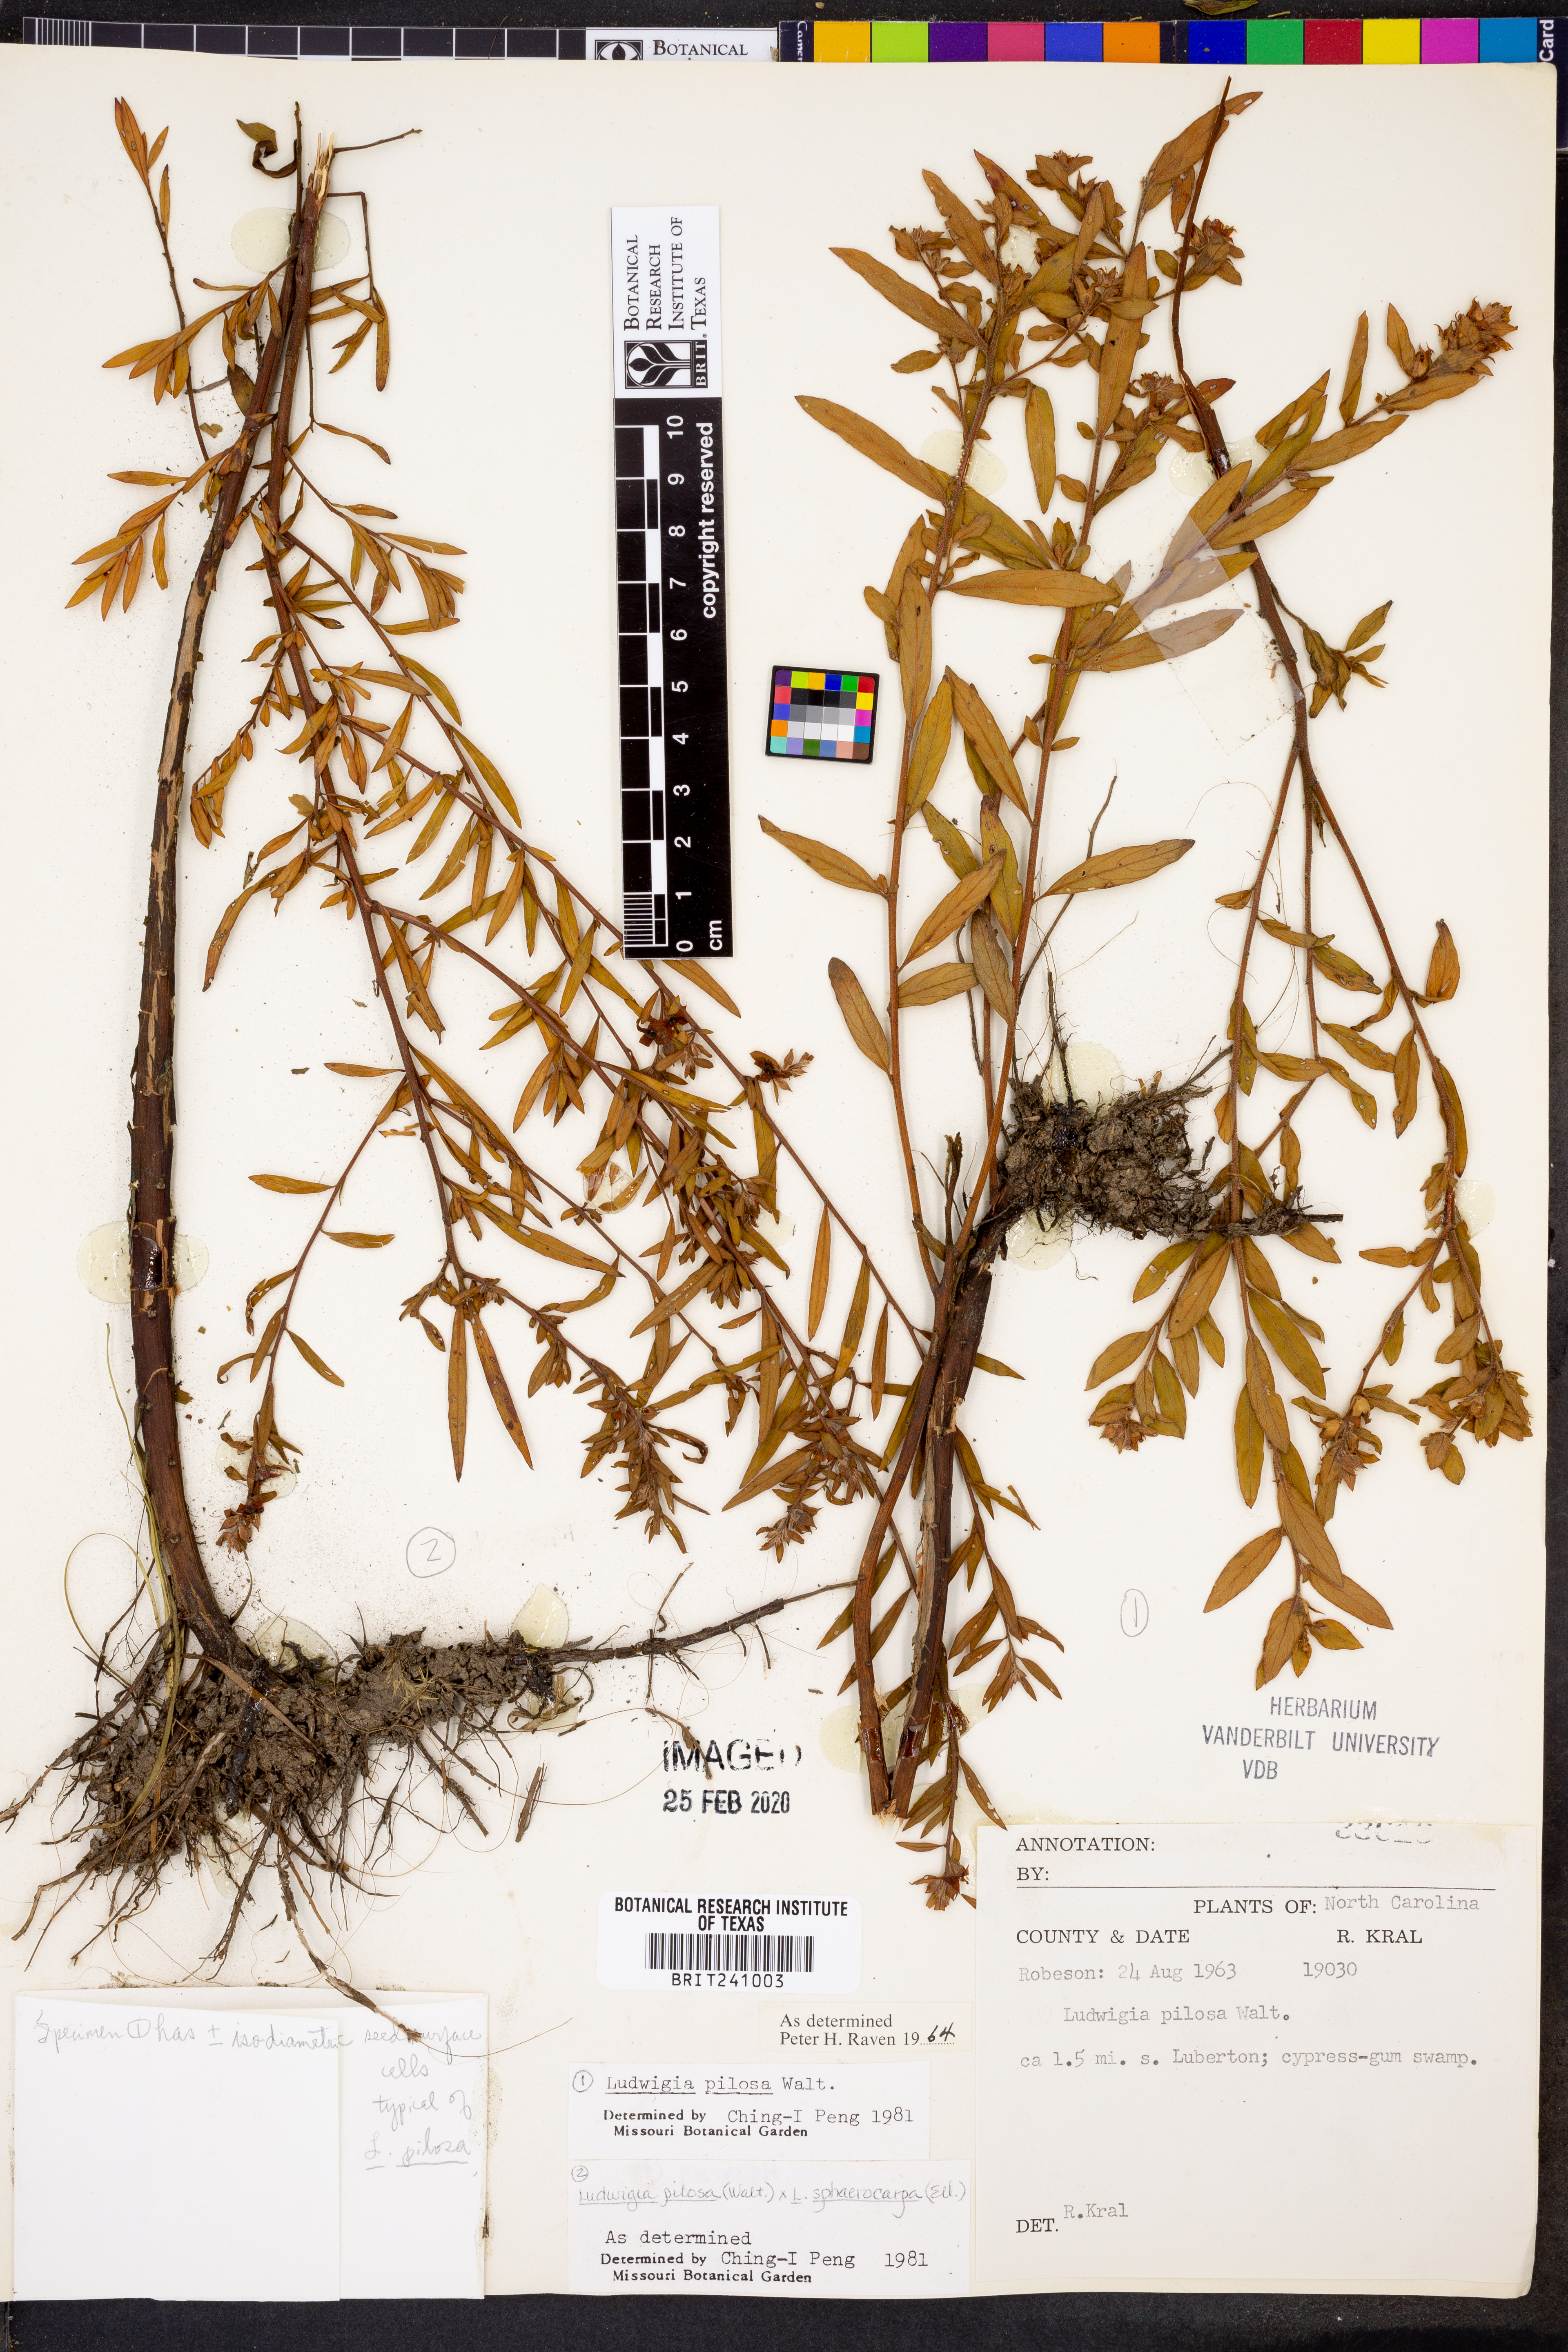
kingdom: Plantae
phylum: Tracheophyta
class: Magnoliopsida
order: Myrtales
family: Onagraceae
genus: Ludwigia
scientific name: Ludwigia pilosa
